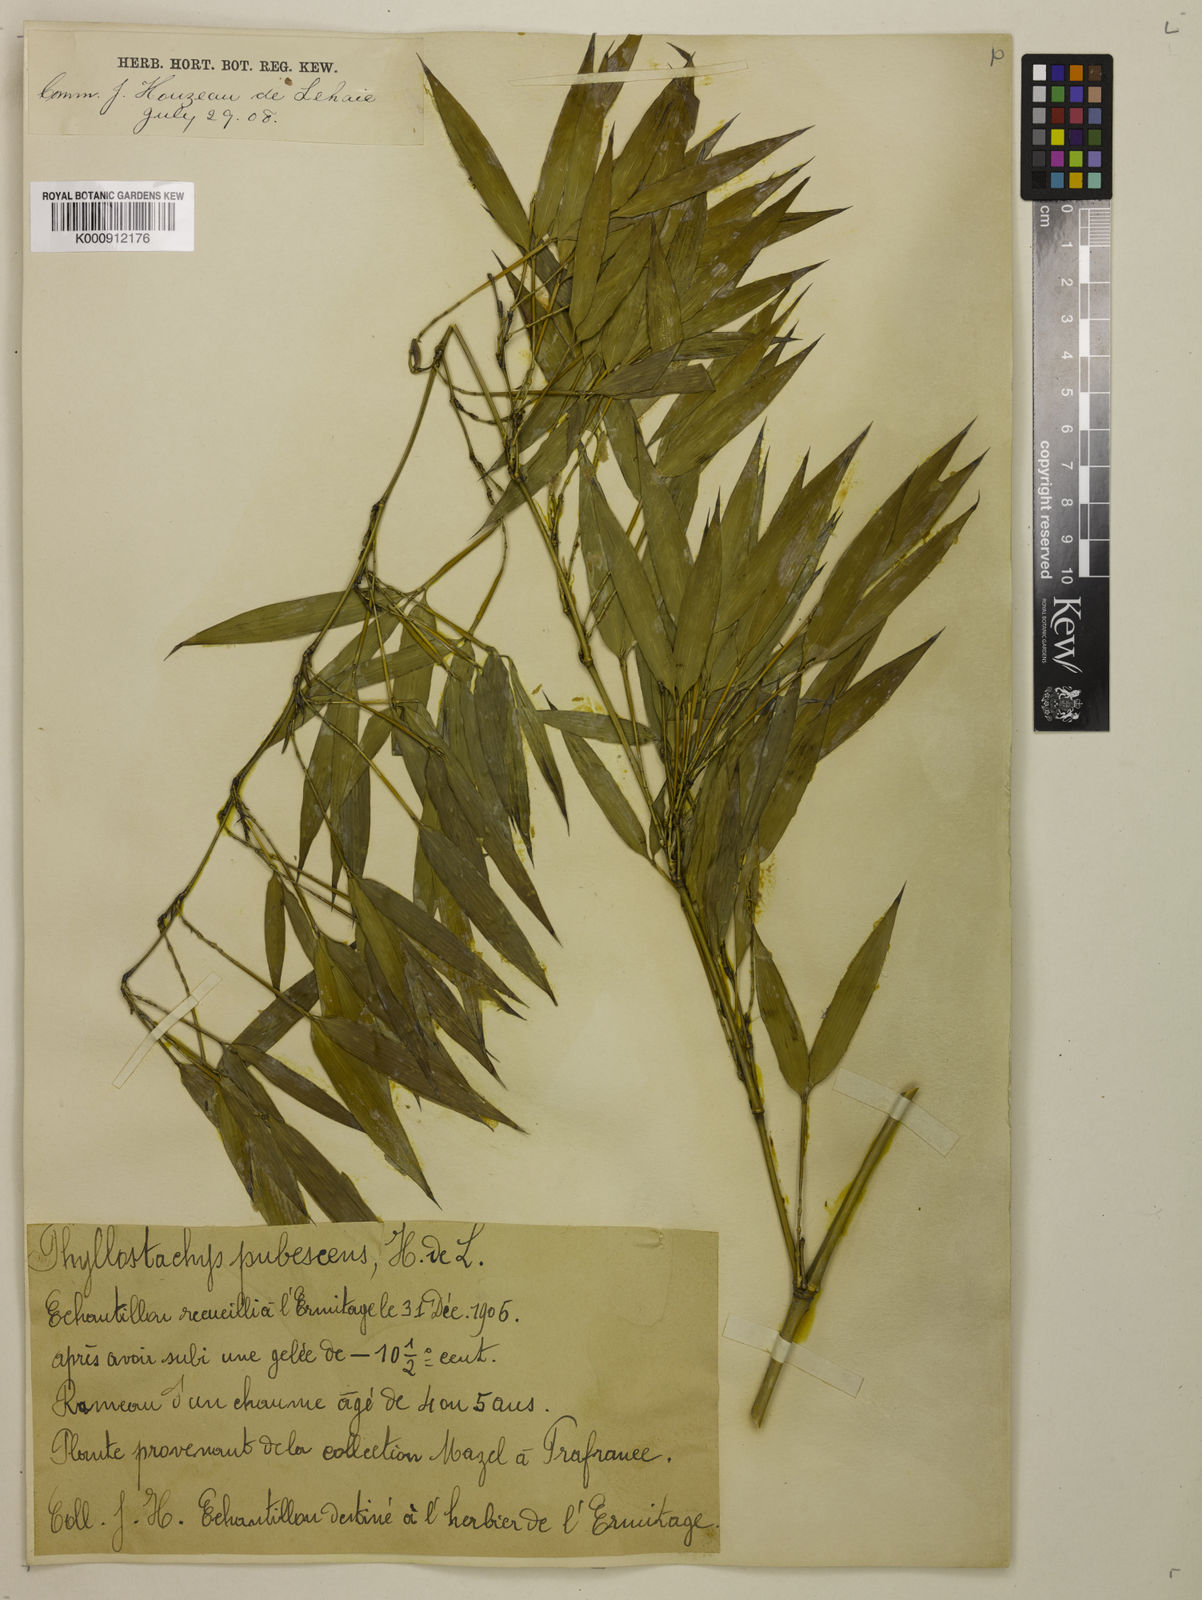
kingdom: Plantae
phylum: Tracheophyta
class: Liliopsida
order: Poales
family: Poaceae
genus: Phyllostachys
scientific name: Phyllostachys
